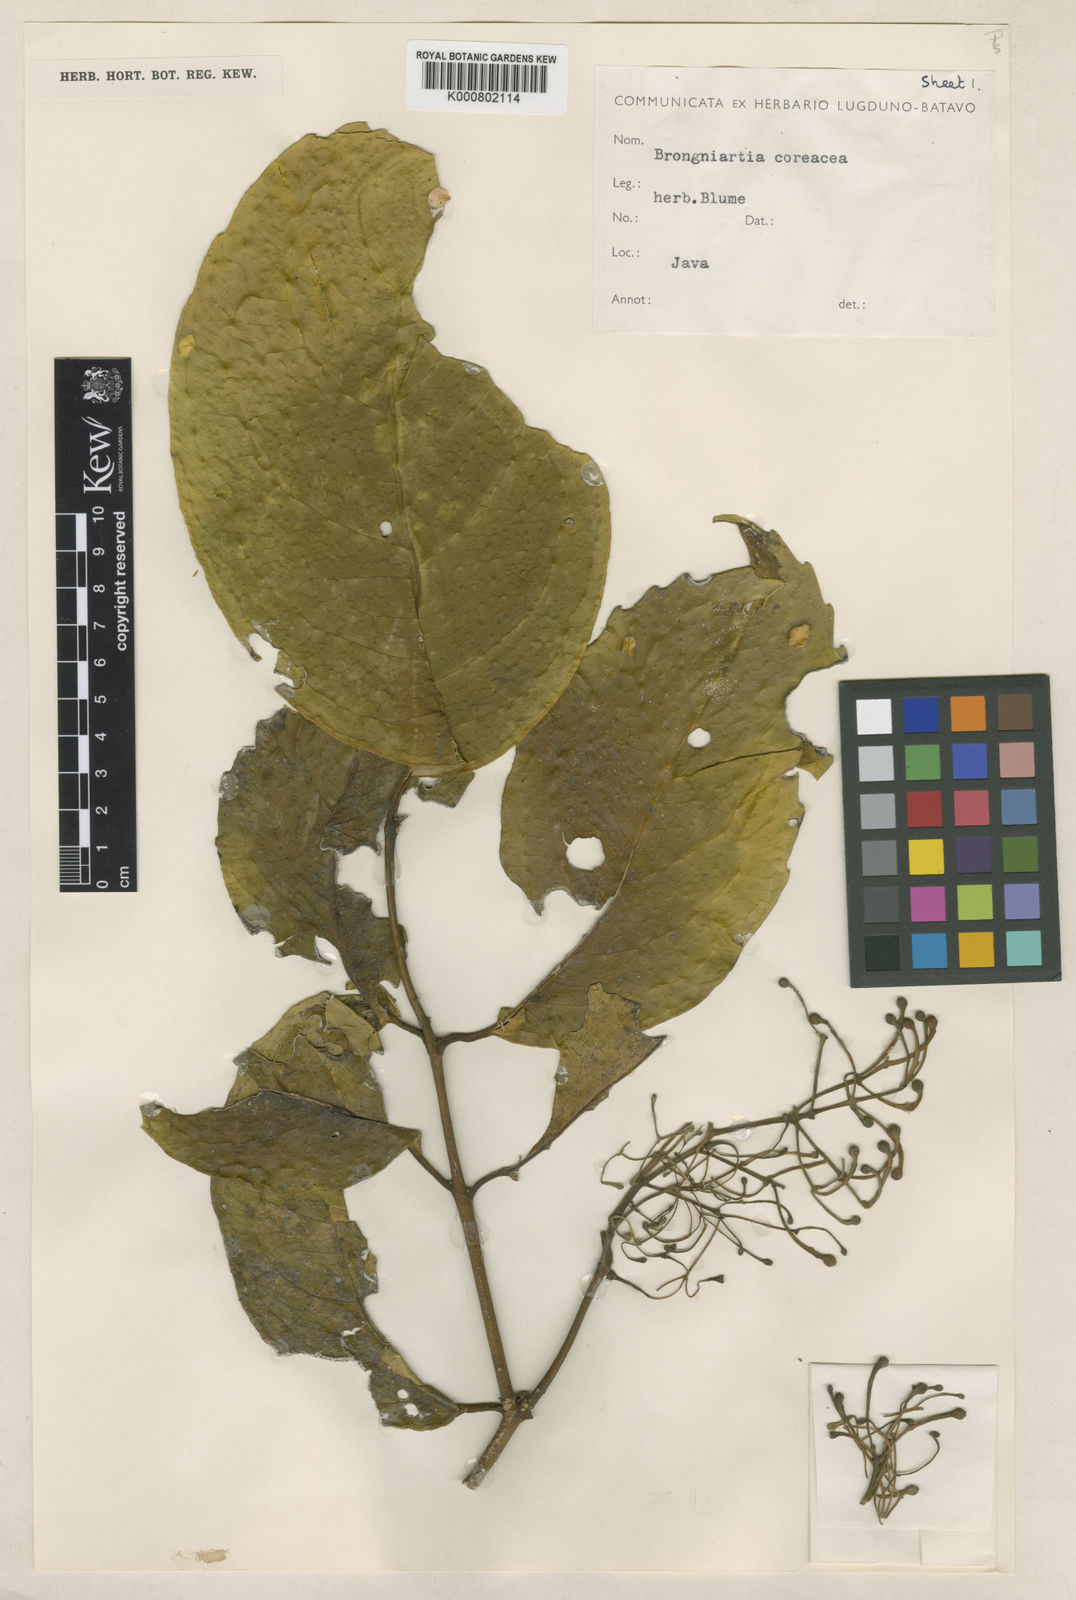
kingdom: Plantae
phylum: Tracheophyta
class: Magnoliopsida
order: Laurales
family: Monimiaceae
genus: Kibara
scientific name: Kibara coriacea
